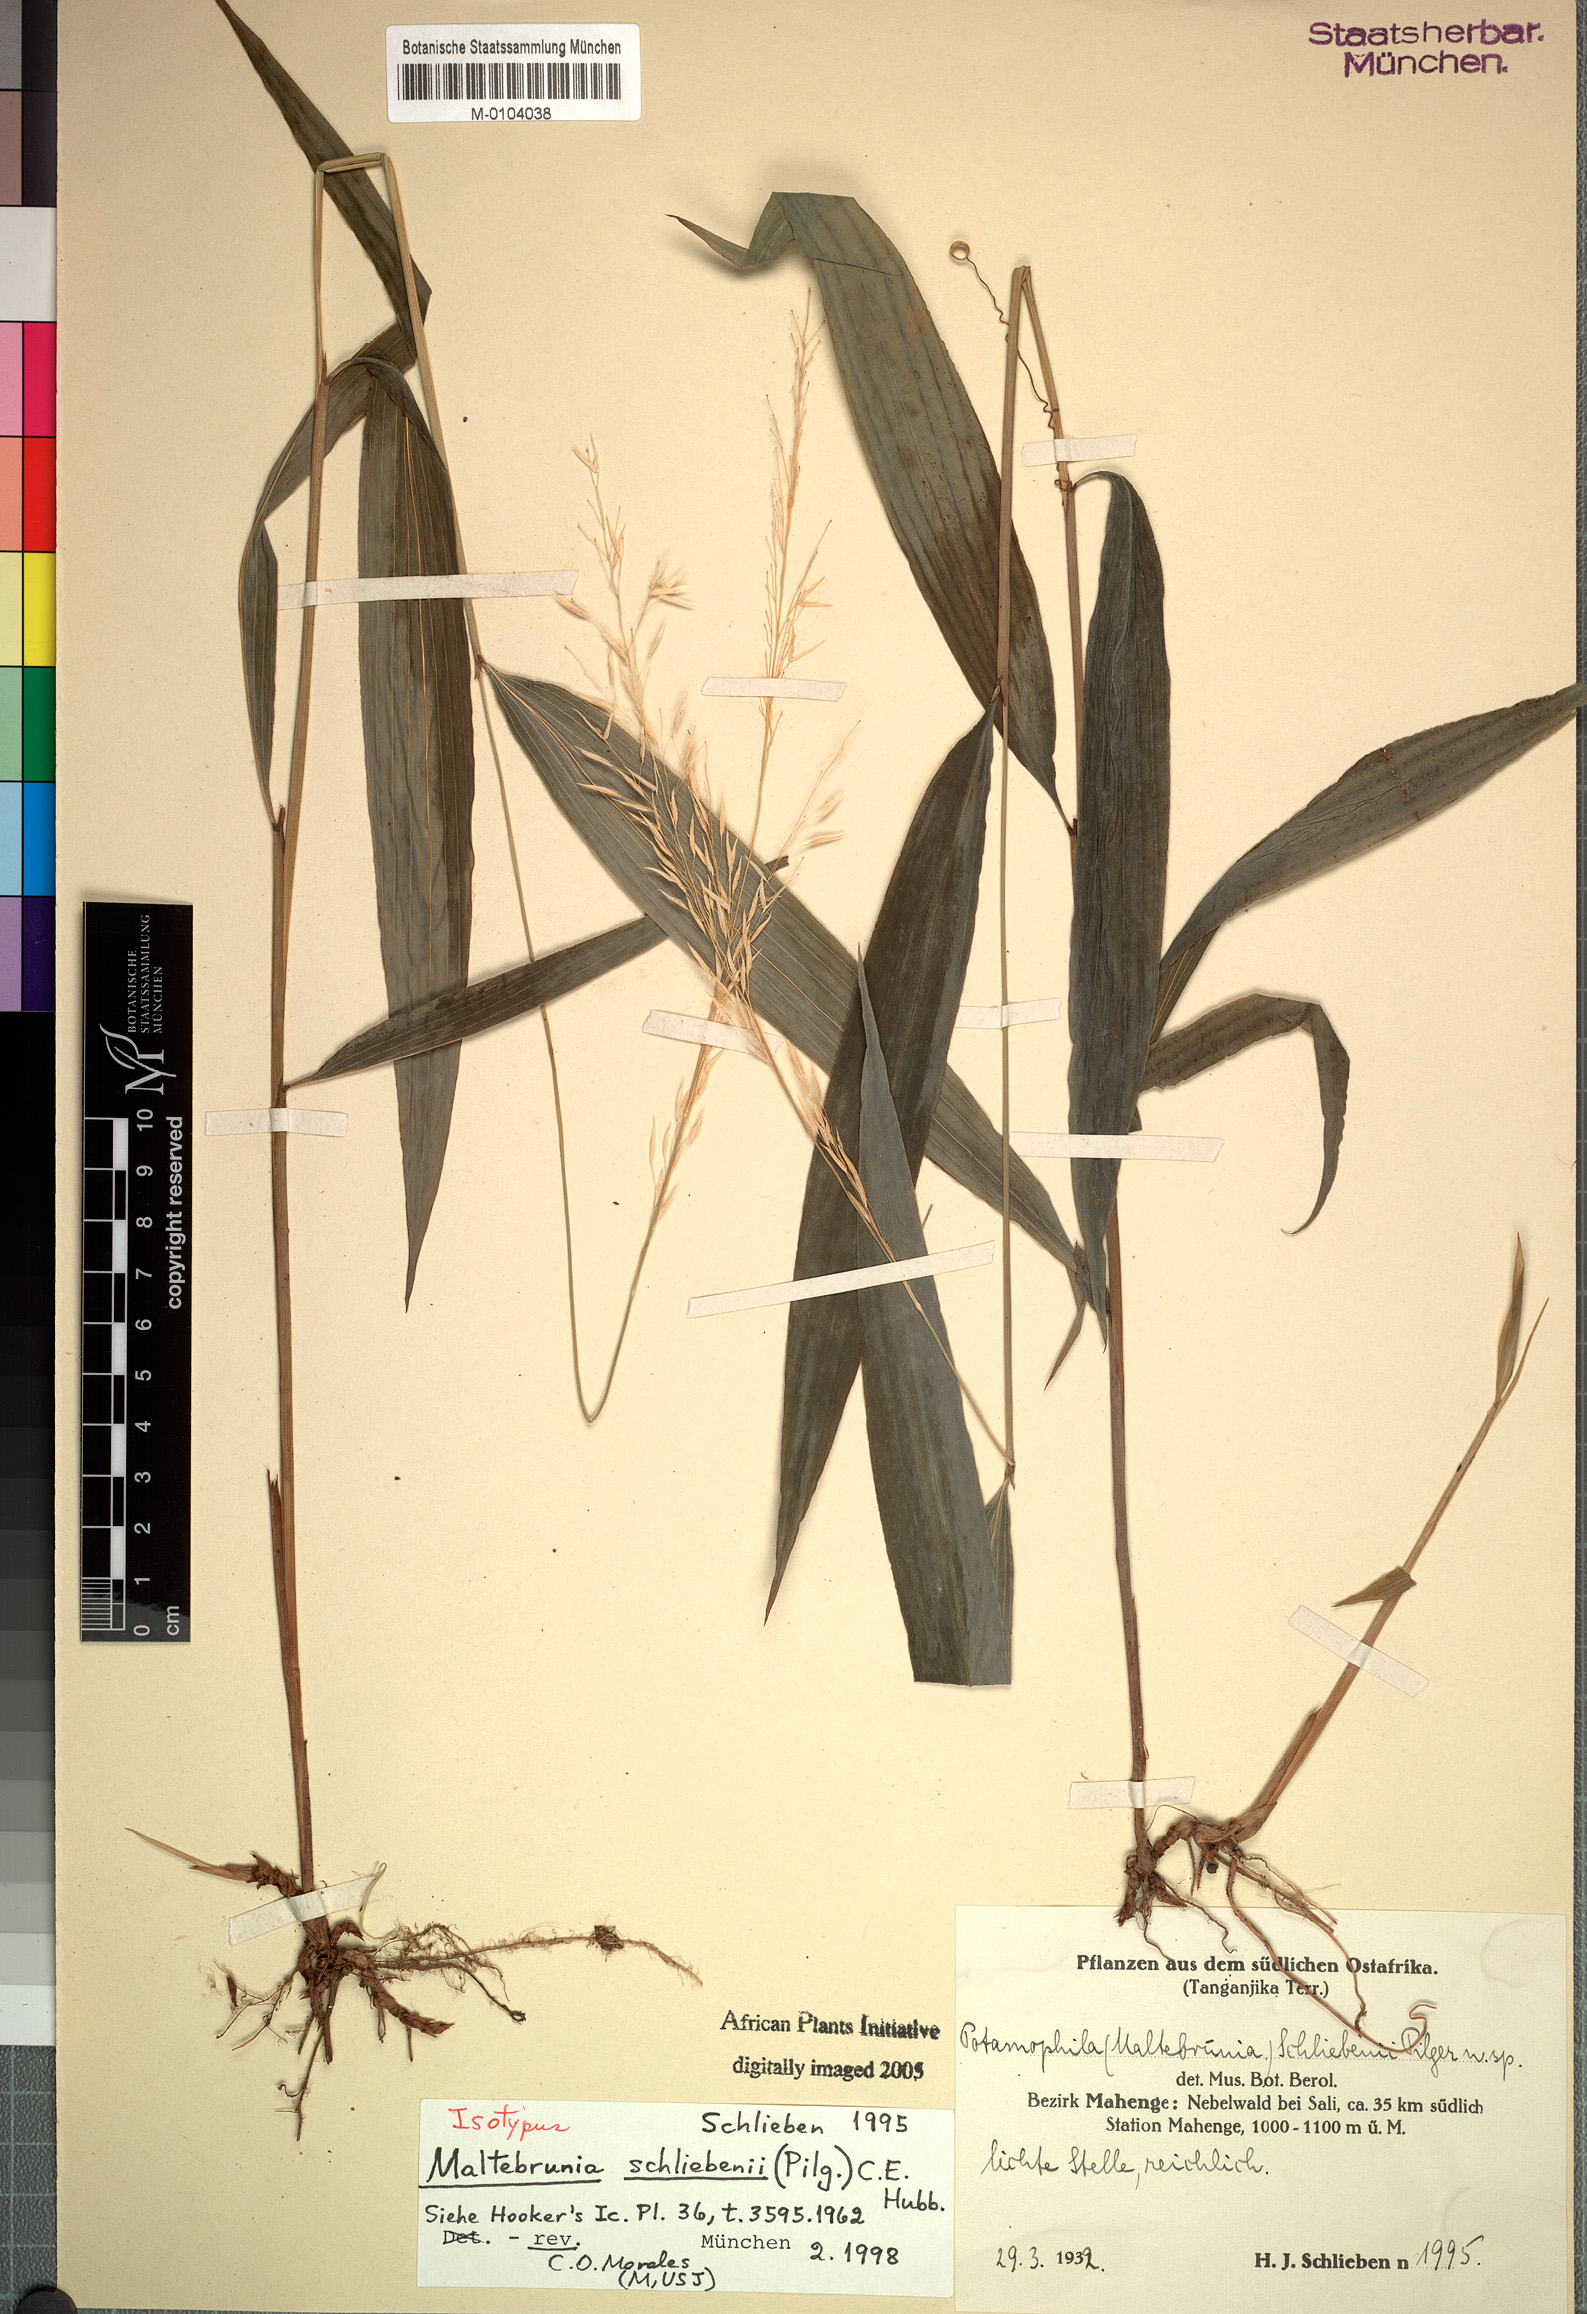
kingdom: Plantae
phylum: Tracheophyta
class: Liliopsida
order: Poales
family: Poaceae
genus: Maltebrunia
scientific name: Maltebrunia schliebenii
